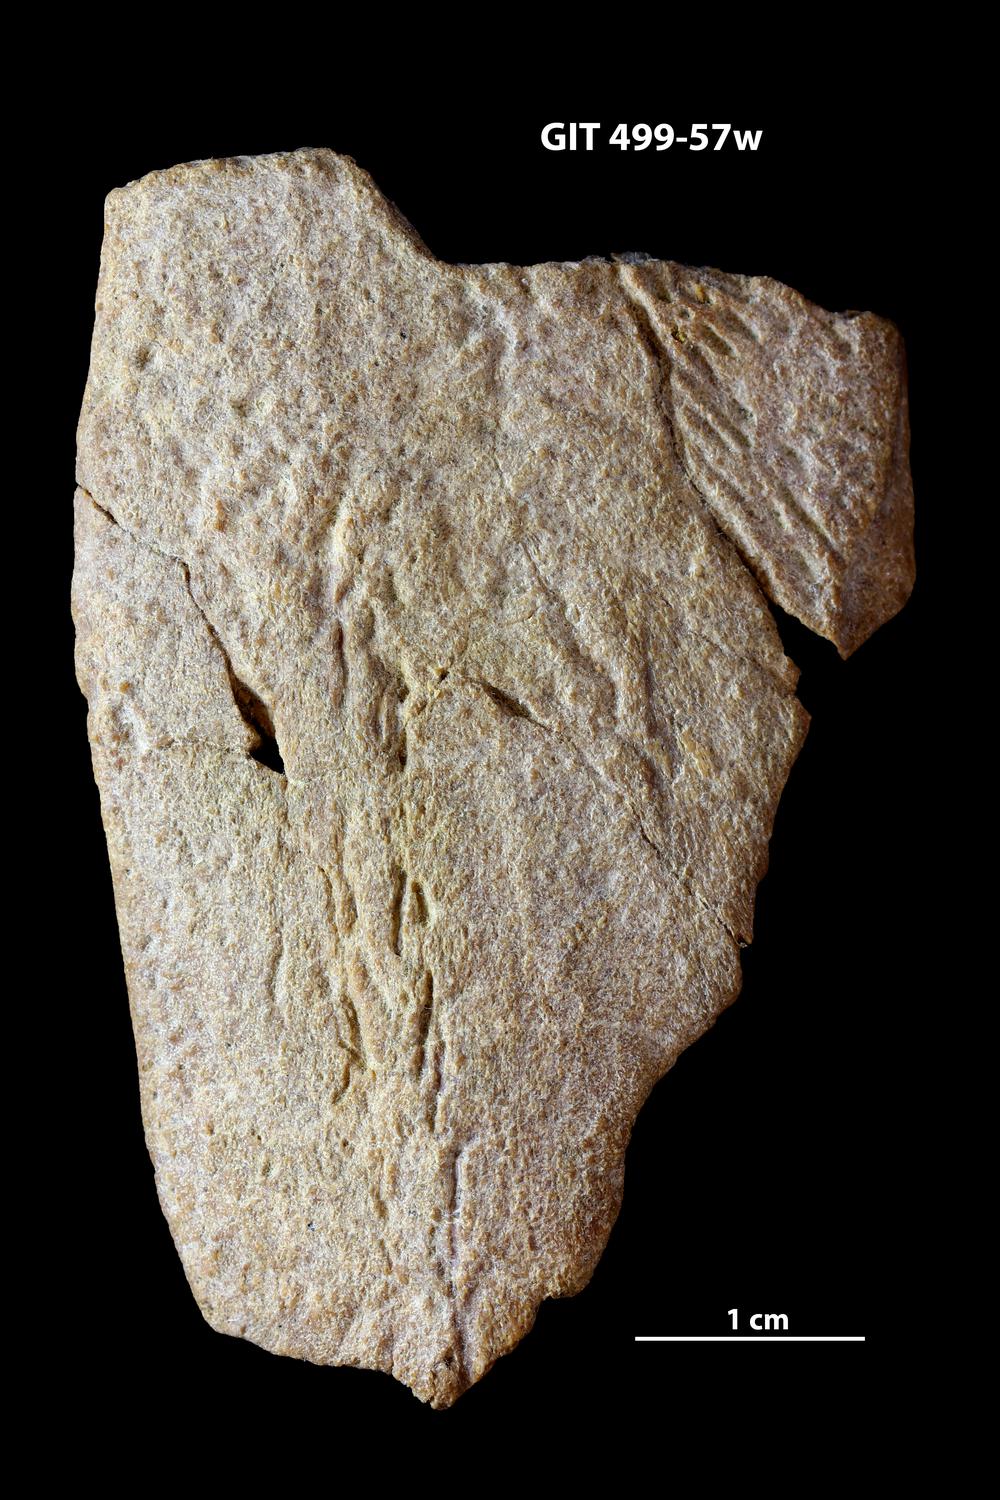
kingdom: Animalia
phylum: Chordata
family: Holoptychiidae
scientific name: Holoptychiidae
